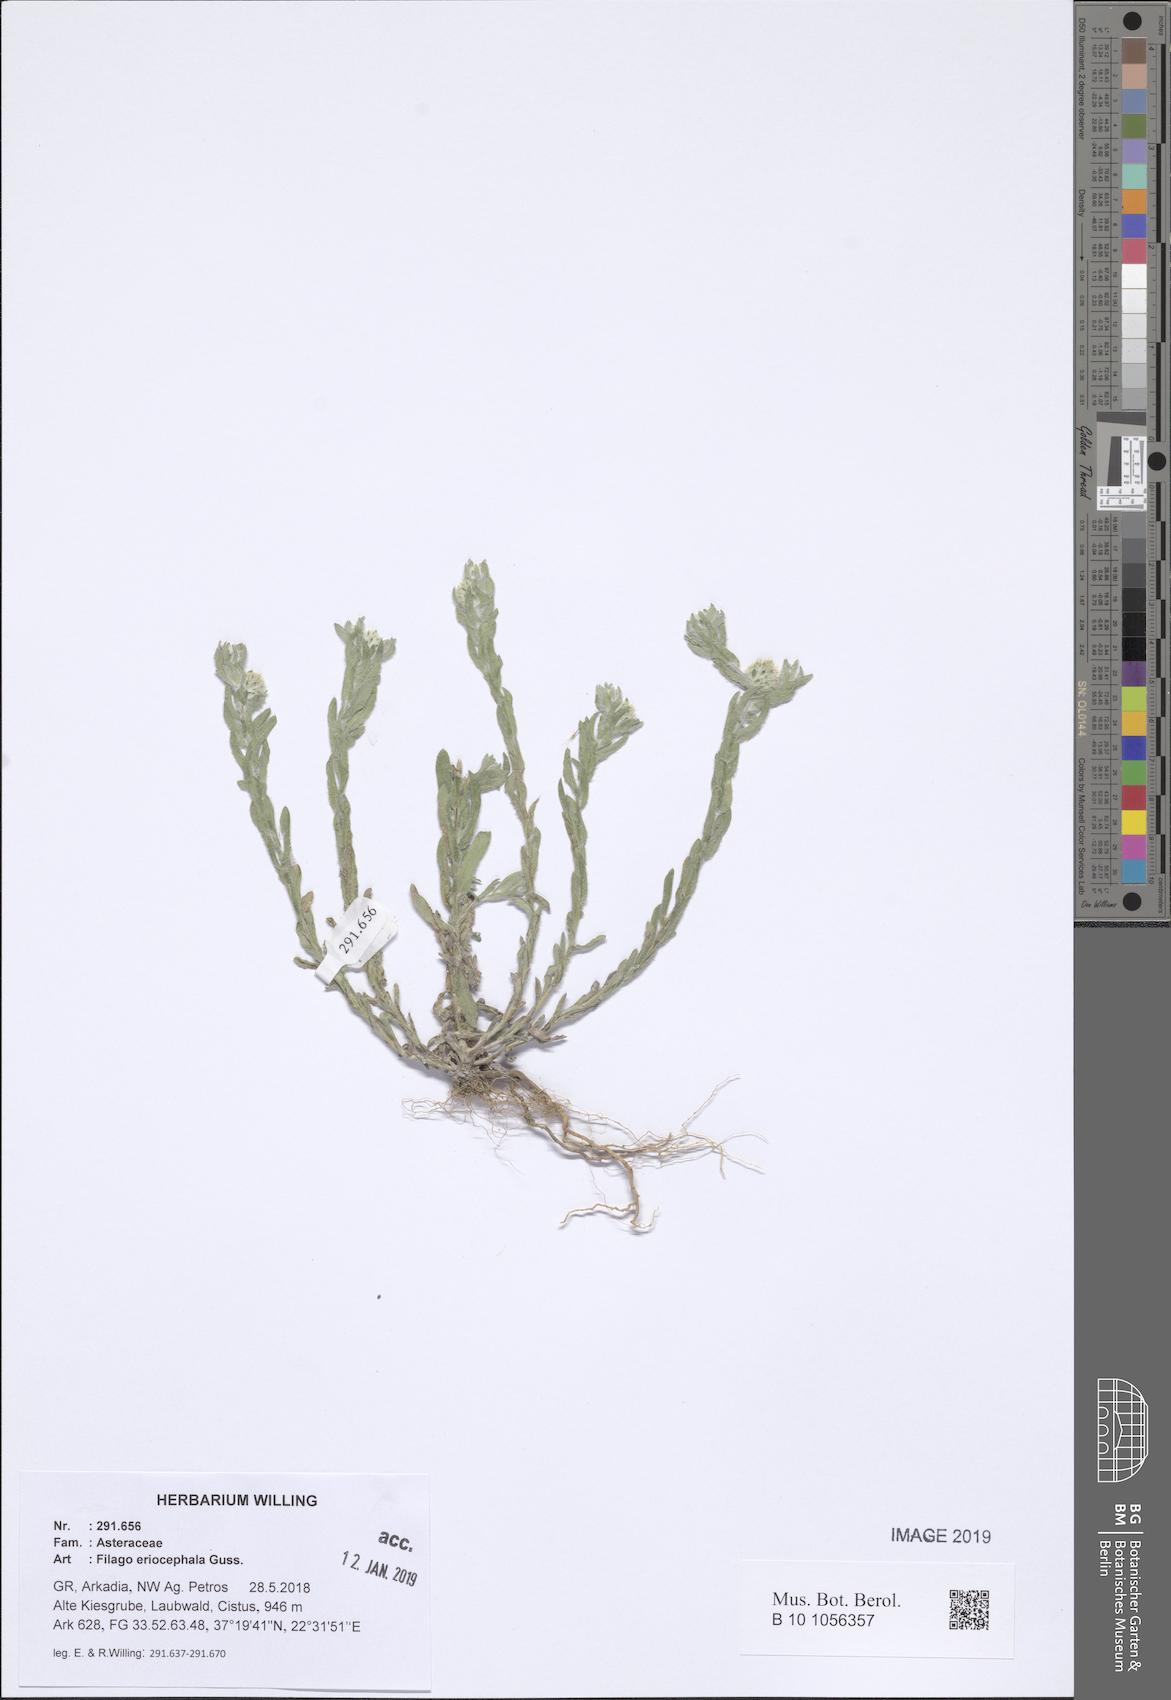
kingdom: Plantae
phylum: Tracheophyta
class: Magnoliopsida
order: Asterales
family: Asteraceae
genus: Filago
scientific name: Filago eriocephala
